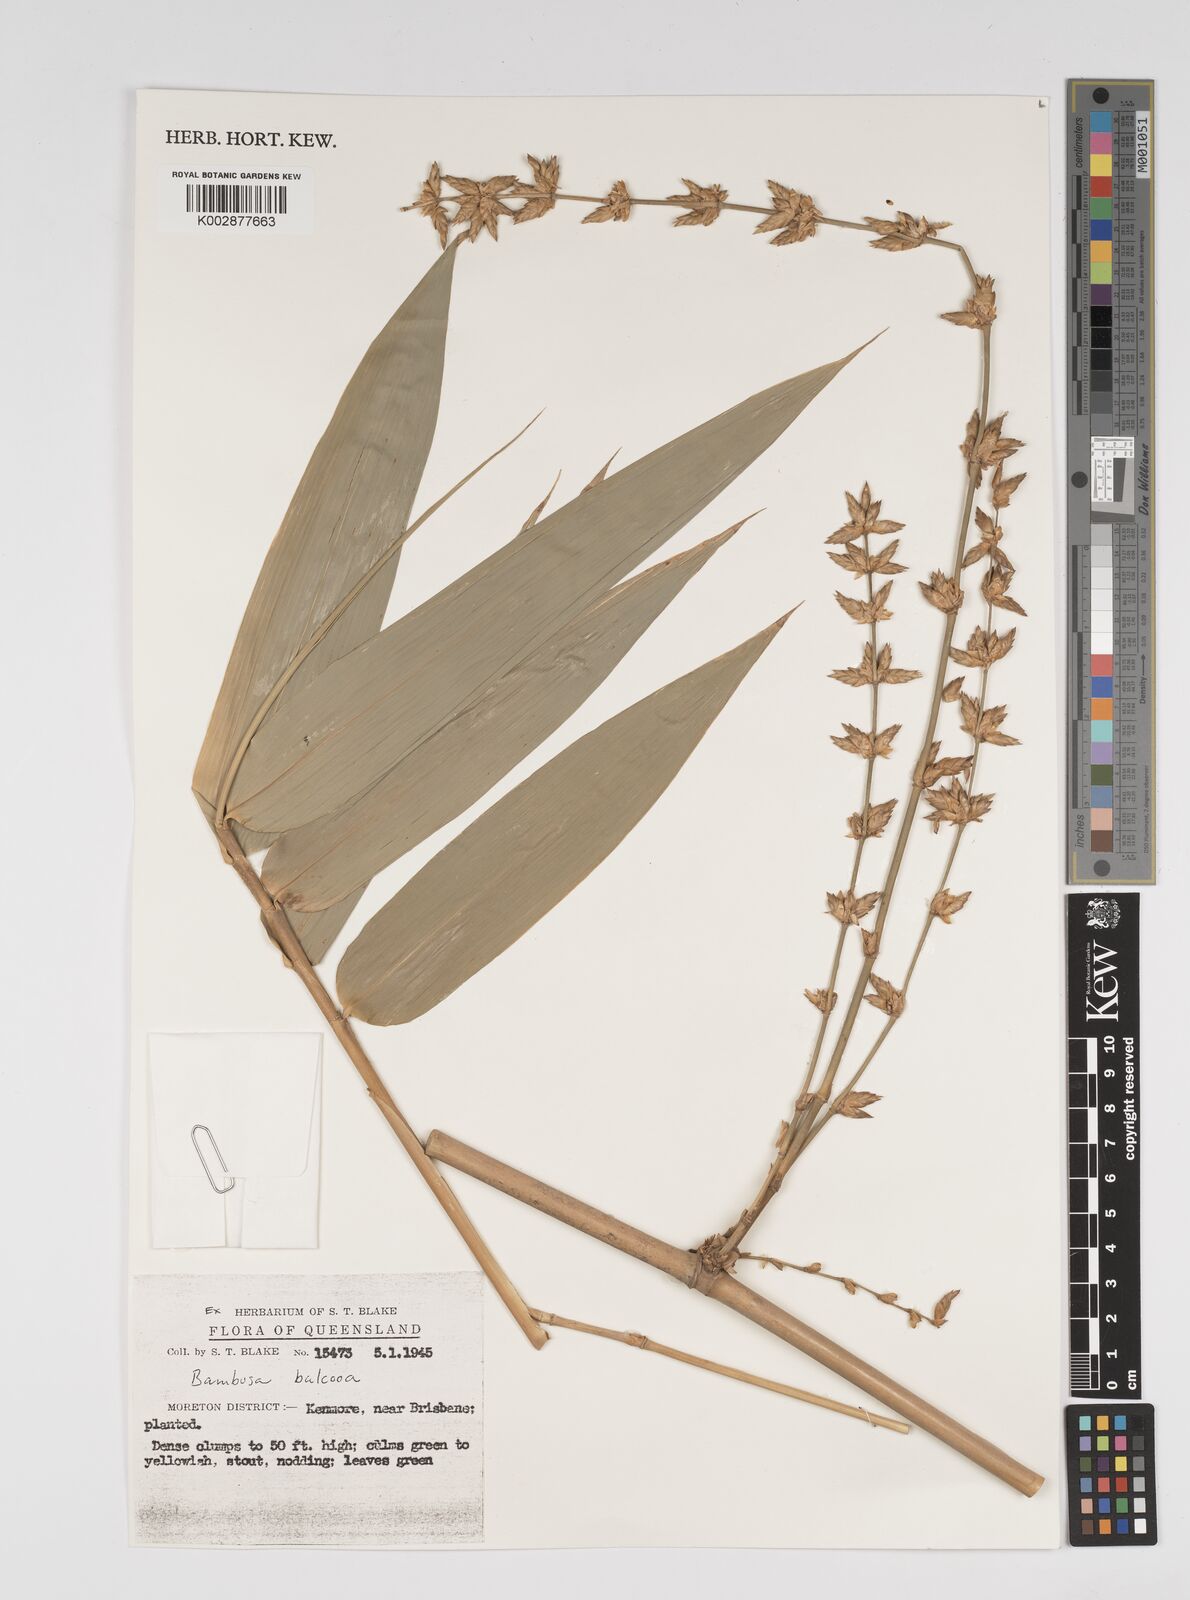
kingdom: Plantae
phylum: Tracheophyta
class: Liliopsida
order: Poales
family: Poaceae
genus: Bambusa
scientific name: Bambusa balcooa
